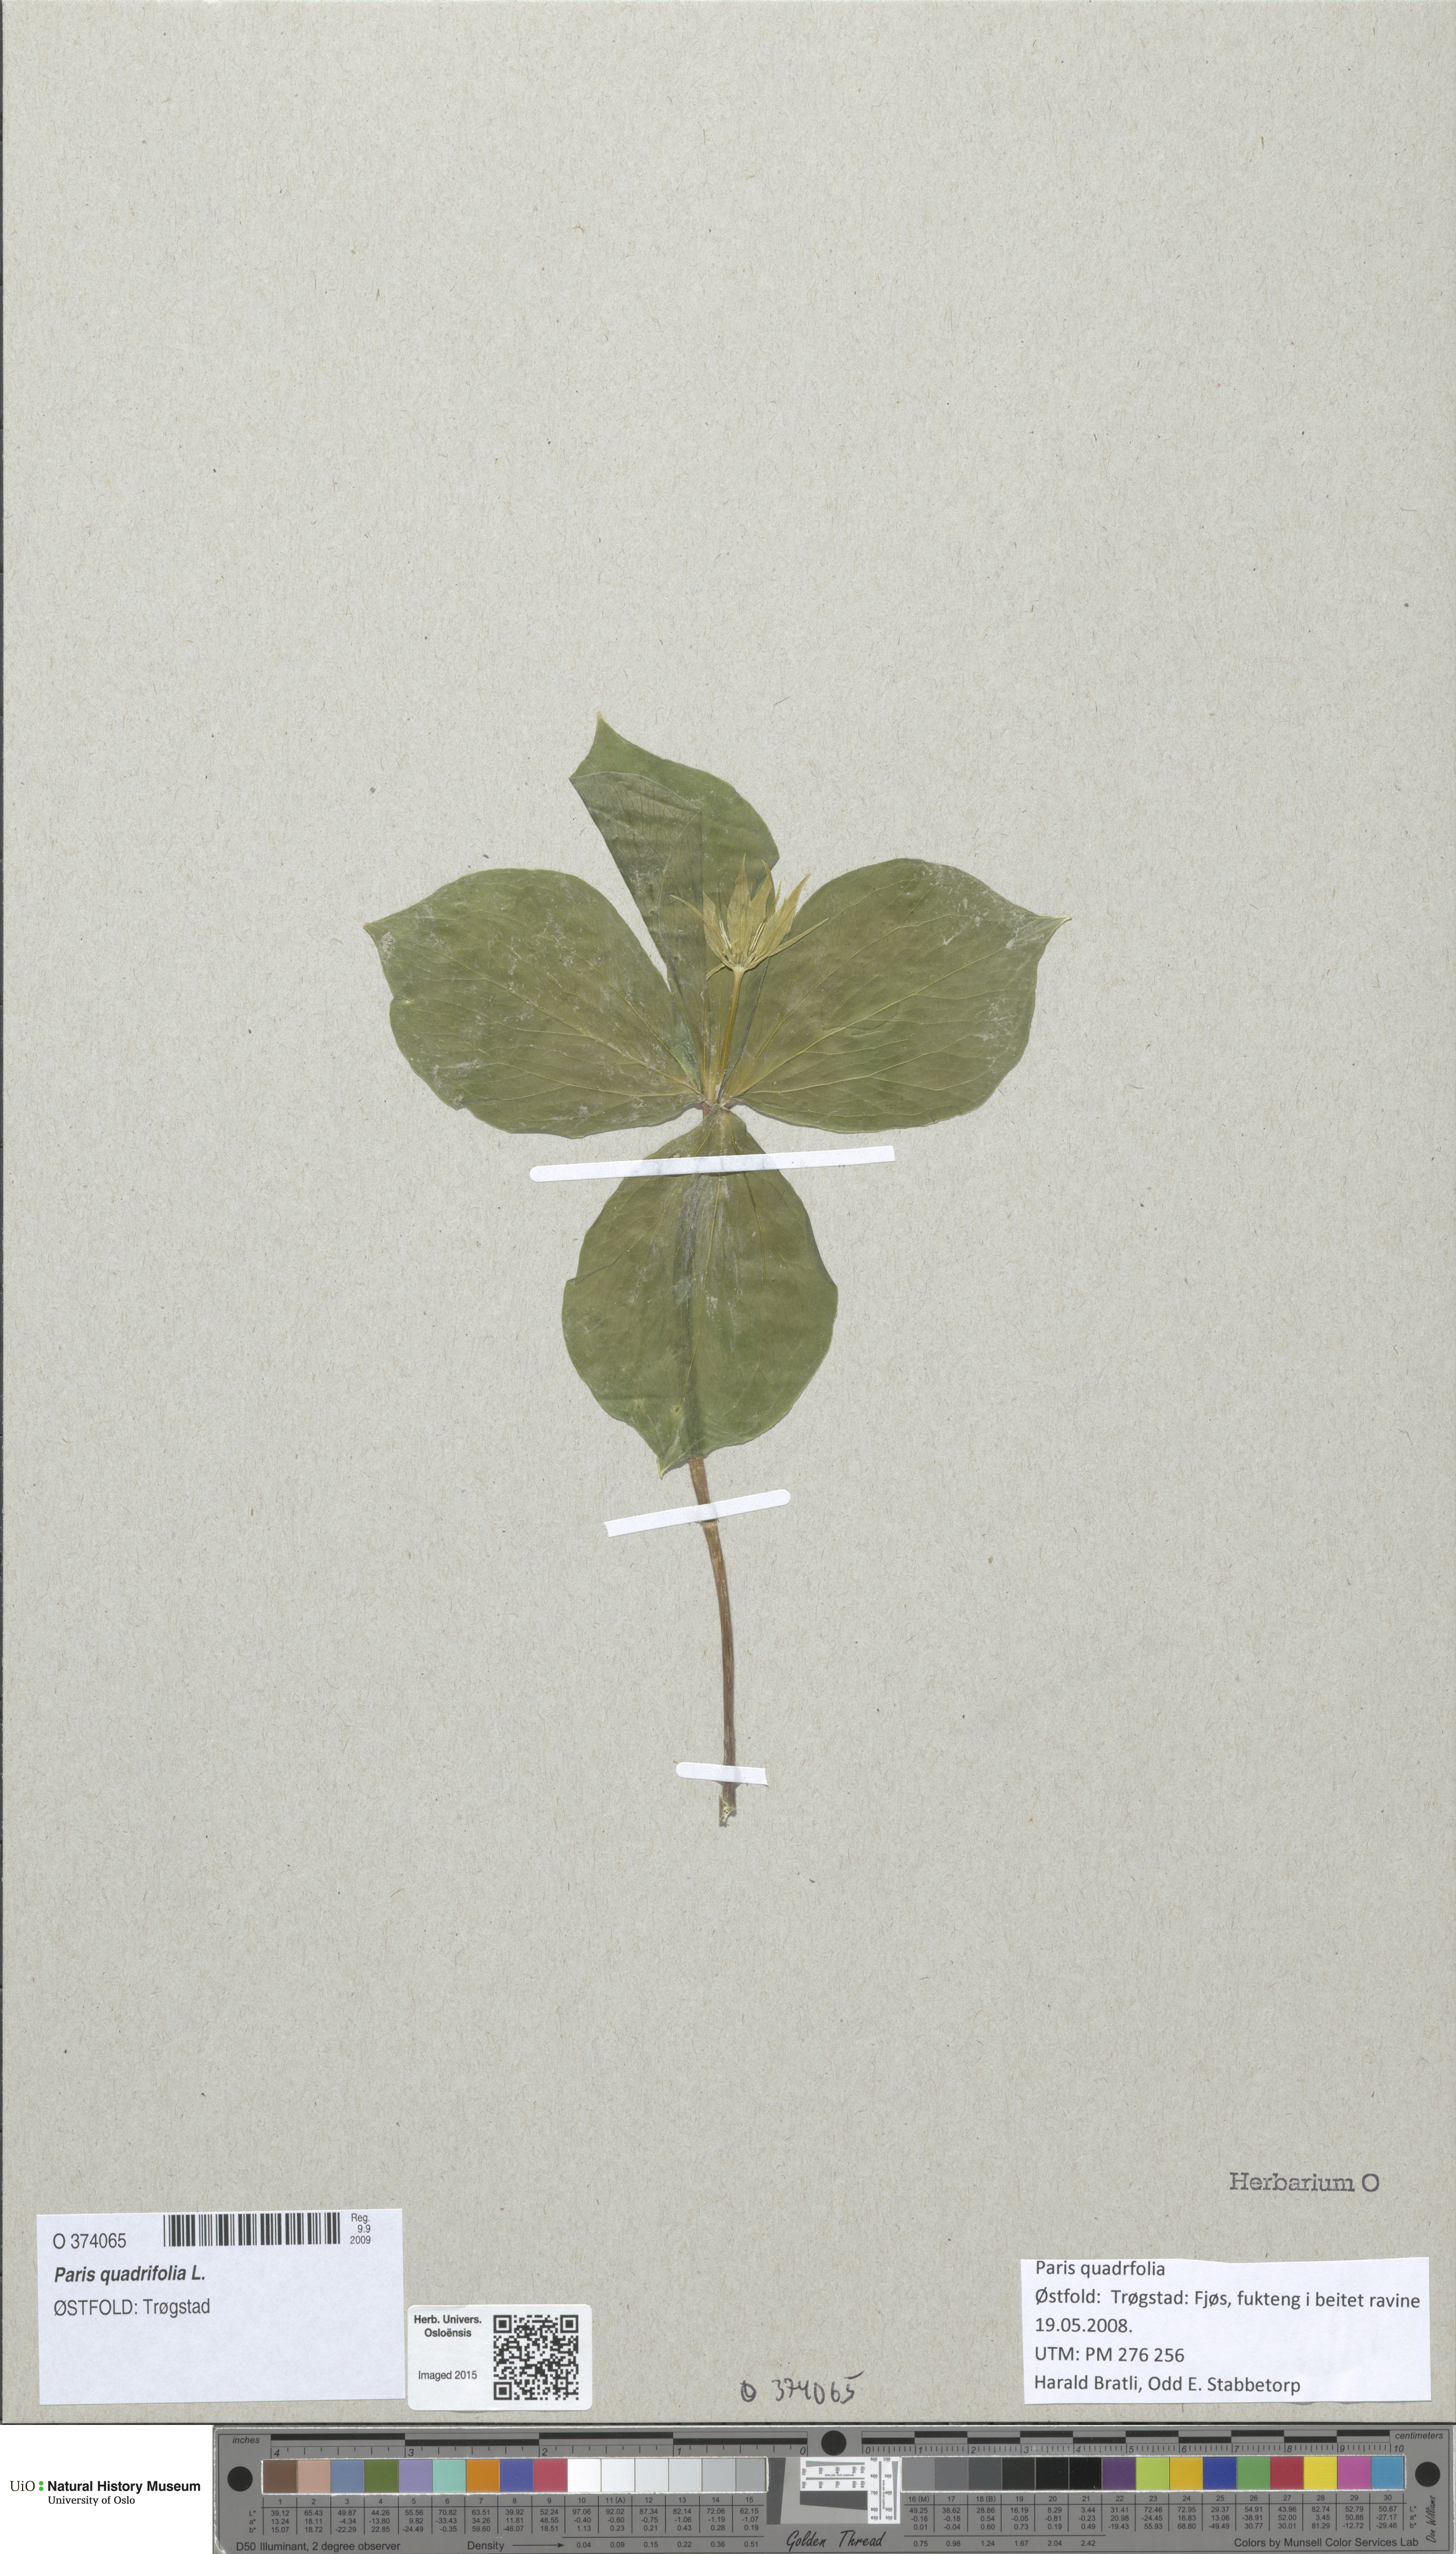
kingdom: Plantae
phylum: Tracheophyta
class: Liliopsida
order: Liliales
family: Melanthiaceae
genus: Paris
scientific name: Paris quadrifolia
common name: Herb-paris
